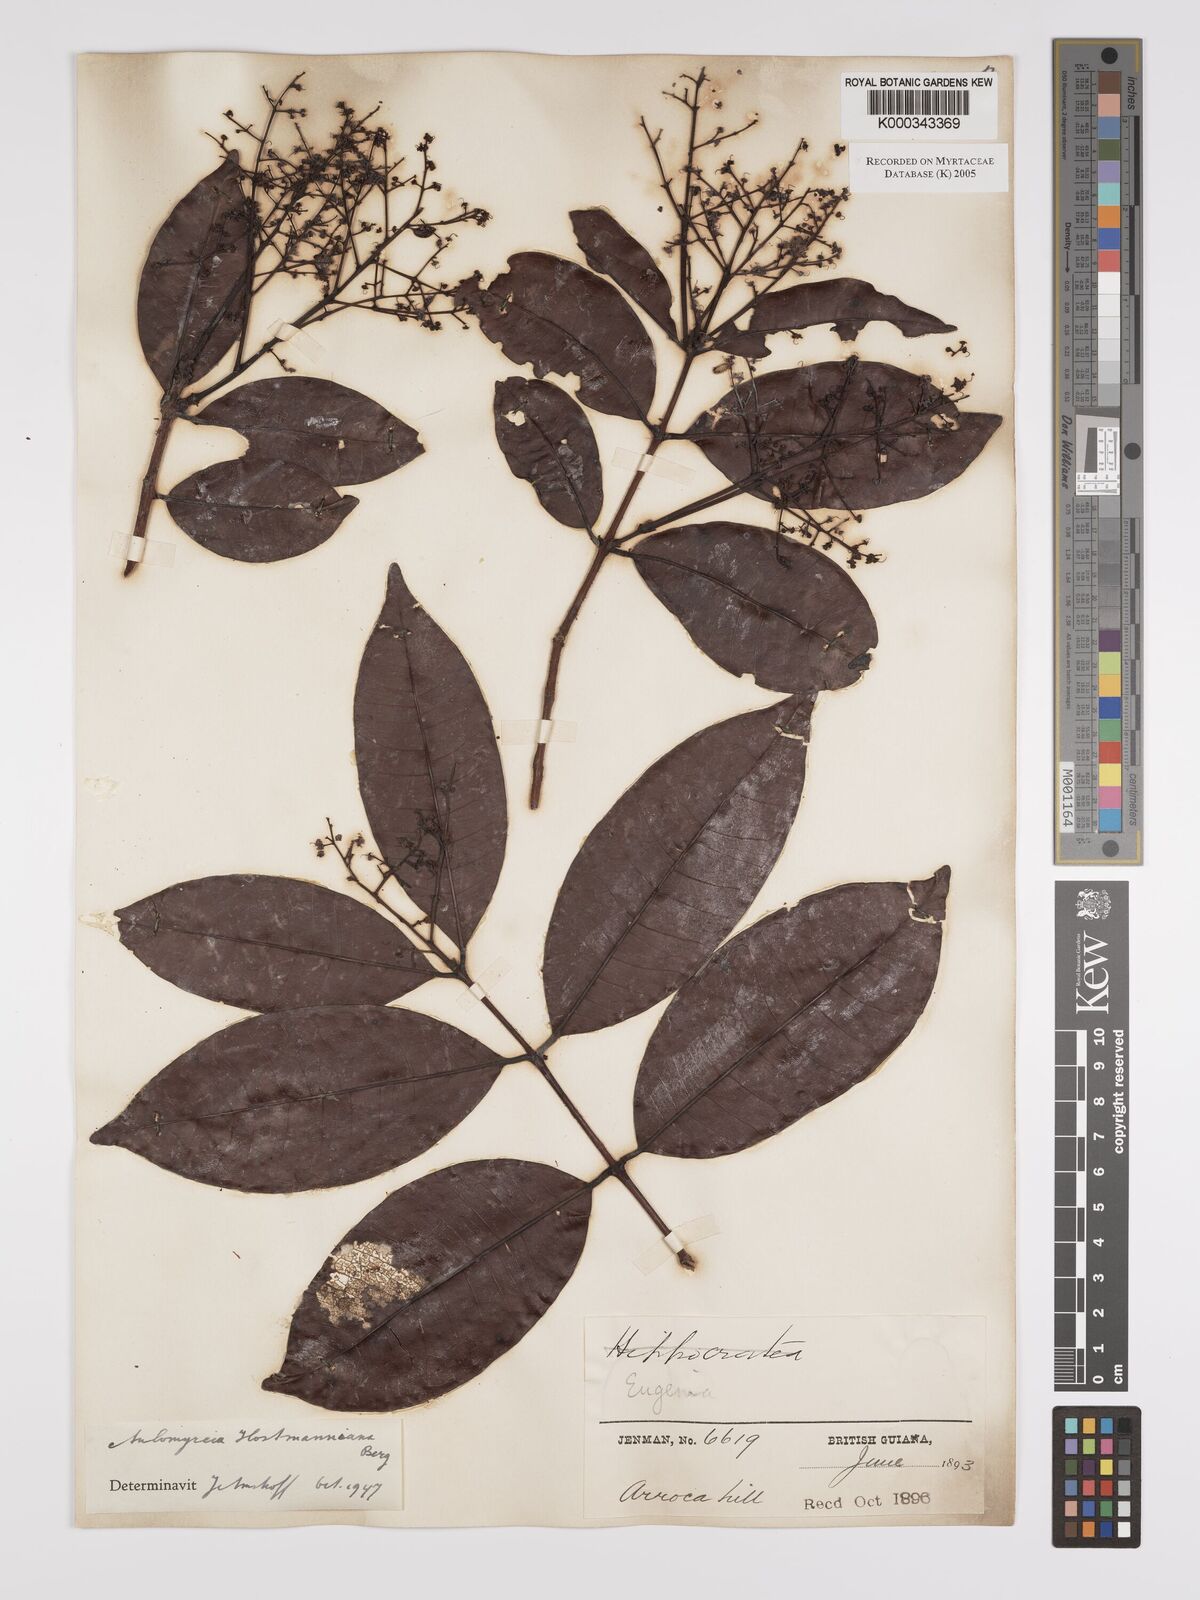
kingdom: Plantae
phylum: Tracheophyta
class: Magnoliopsida
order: Myrtales
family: Myrtaceae
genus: Myrcia
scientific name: Myrcia amazonica
